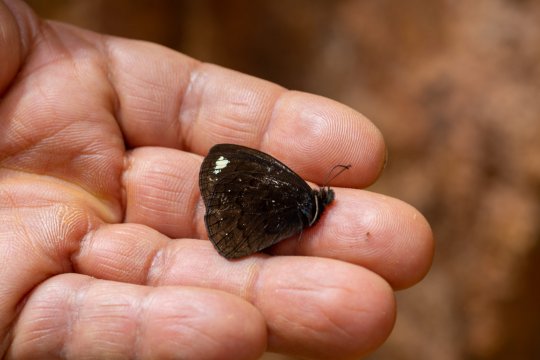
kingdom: Animalia
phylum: Arthropoda
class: Insecta
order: Lepidoptera
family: Nymphalidae
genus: Forsterinaria
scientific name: Forsterinaria rustica
